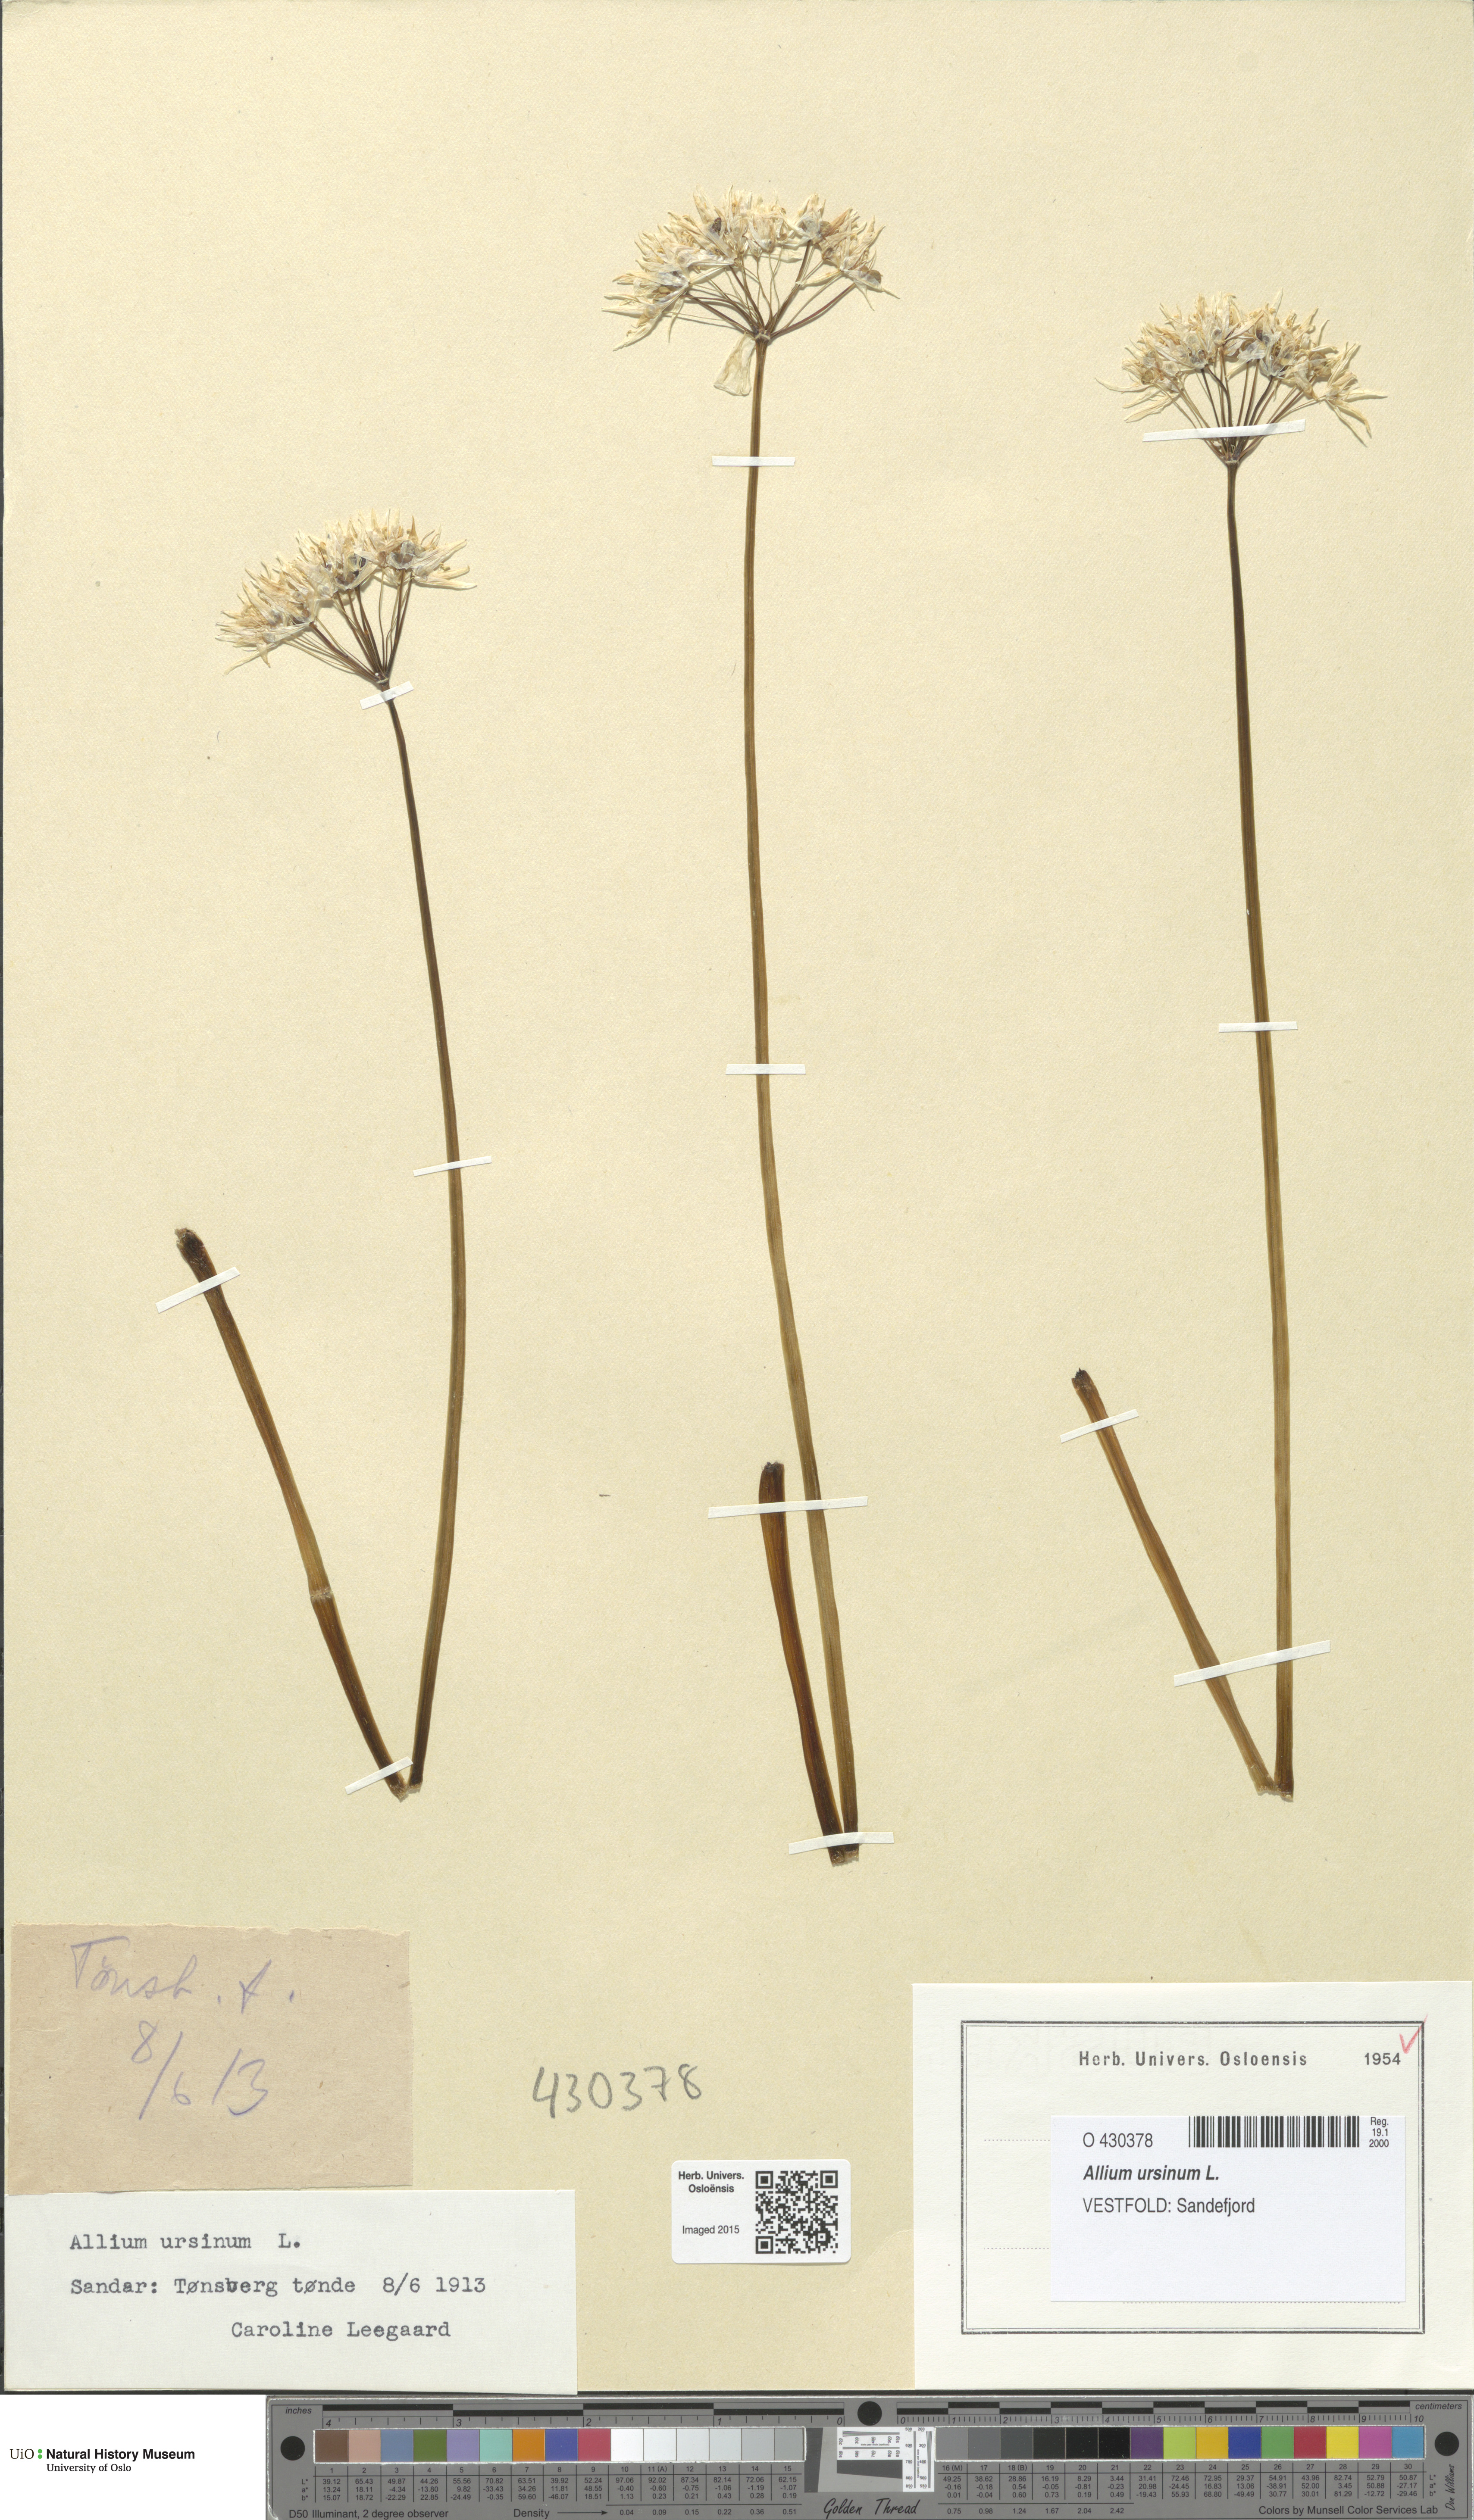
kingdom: Plantae
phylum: Tracheophyta
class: Liliopsida
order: Asparagales
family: Amaryllidaceae
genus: Allium
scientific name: Allium ursinum
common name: Ramsons
